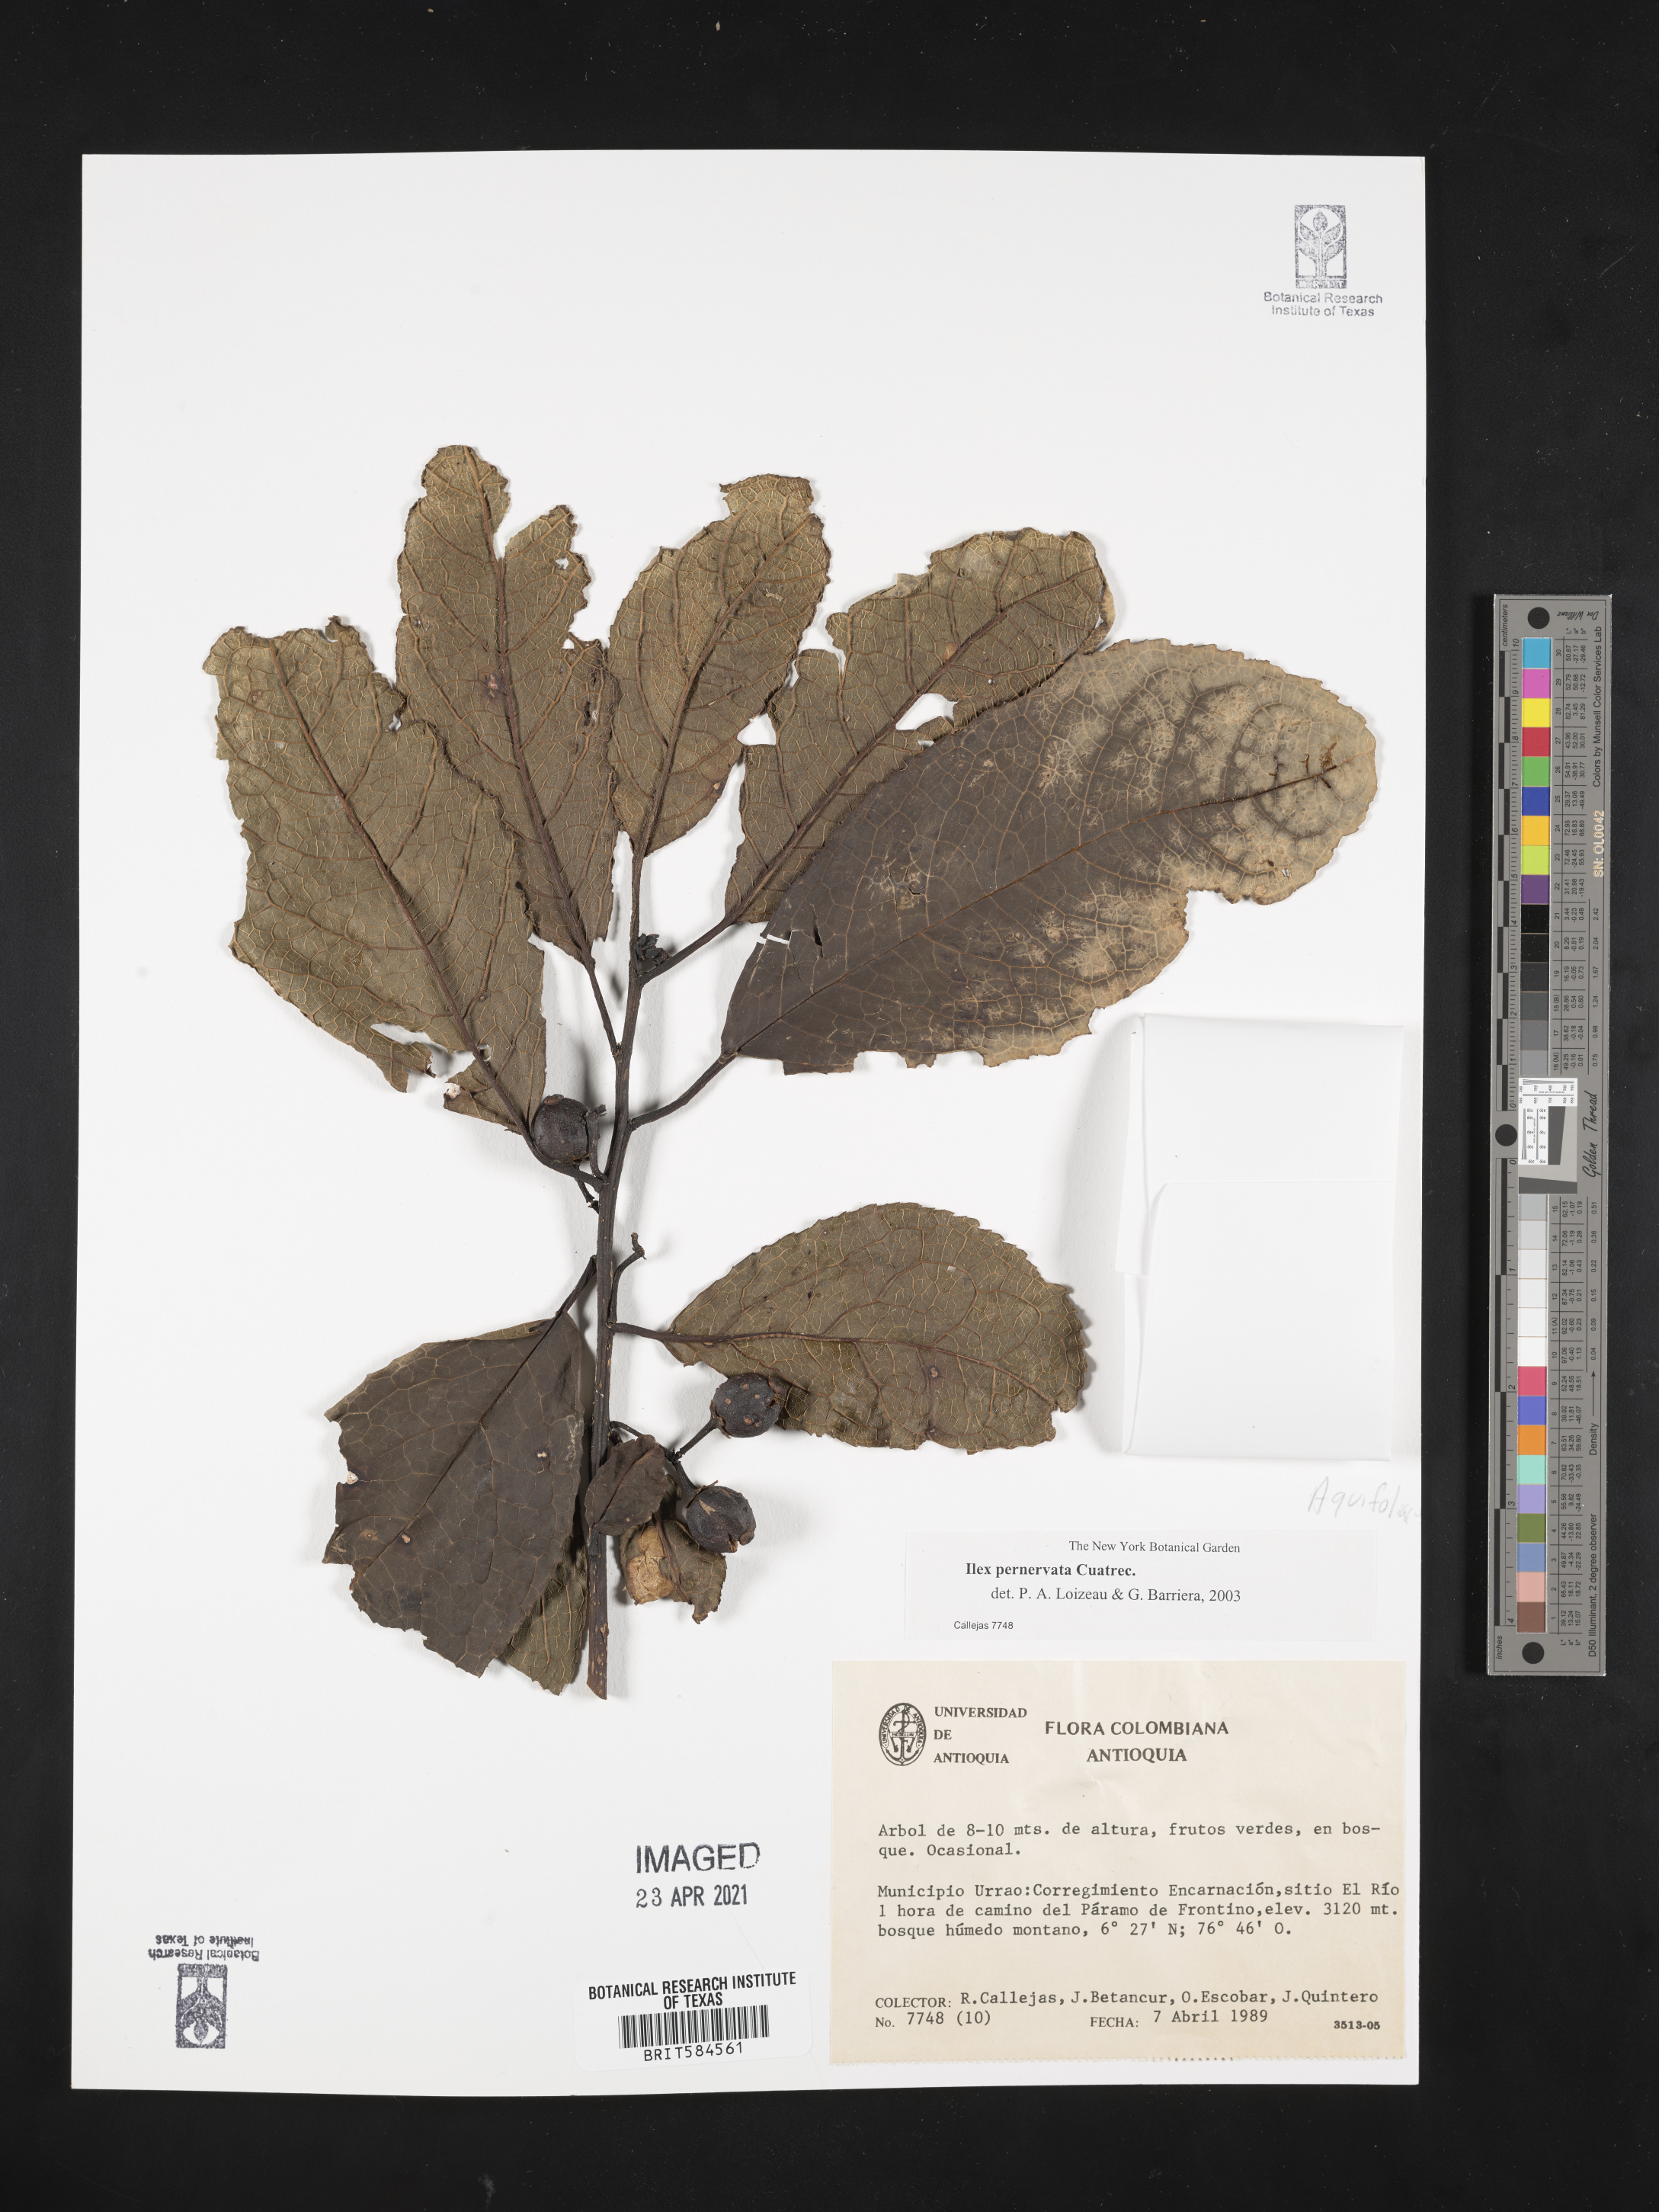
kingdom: Plantae
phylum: Tracheophyta
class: Magnoliopsida
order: Aquifoliales
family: Aquifoliaceae
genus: Ilex
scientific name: Ilex pernervata
